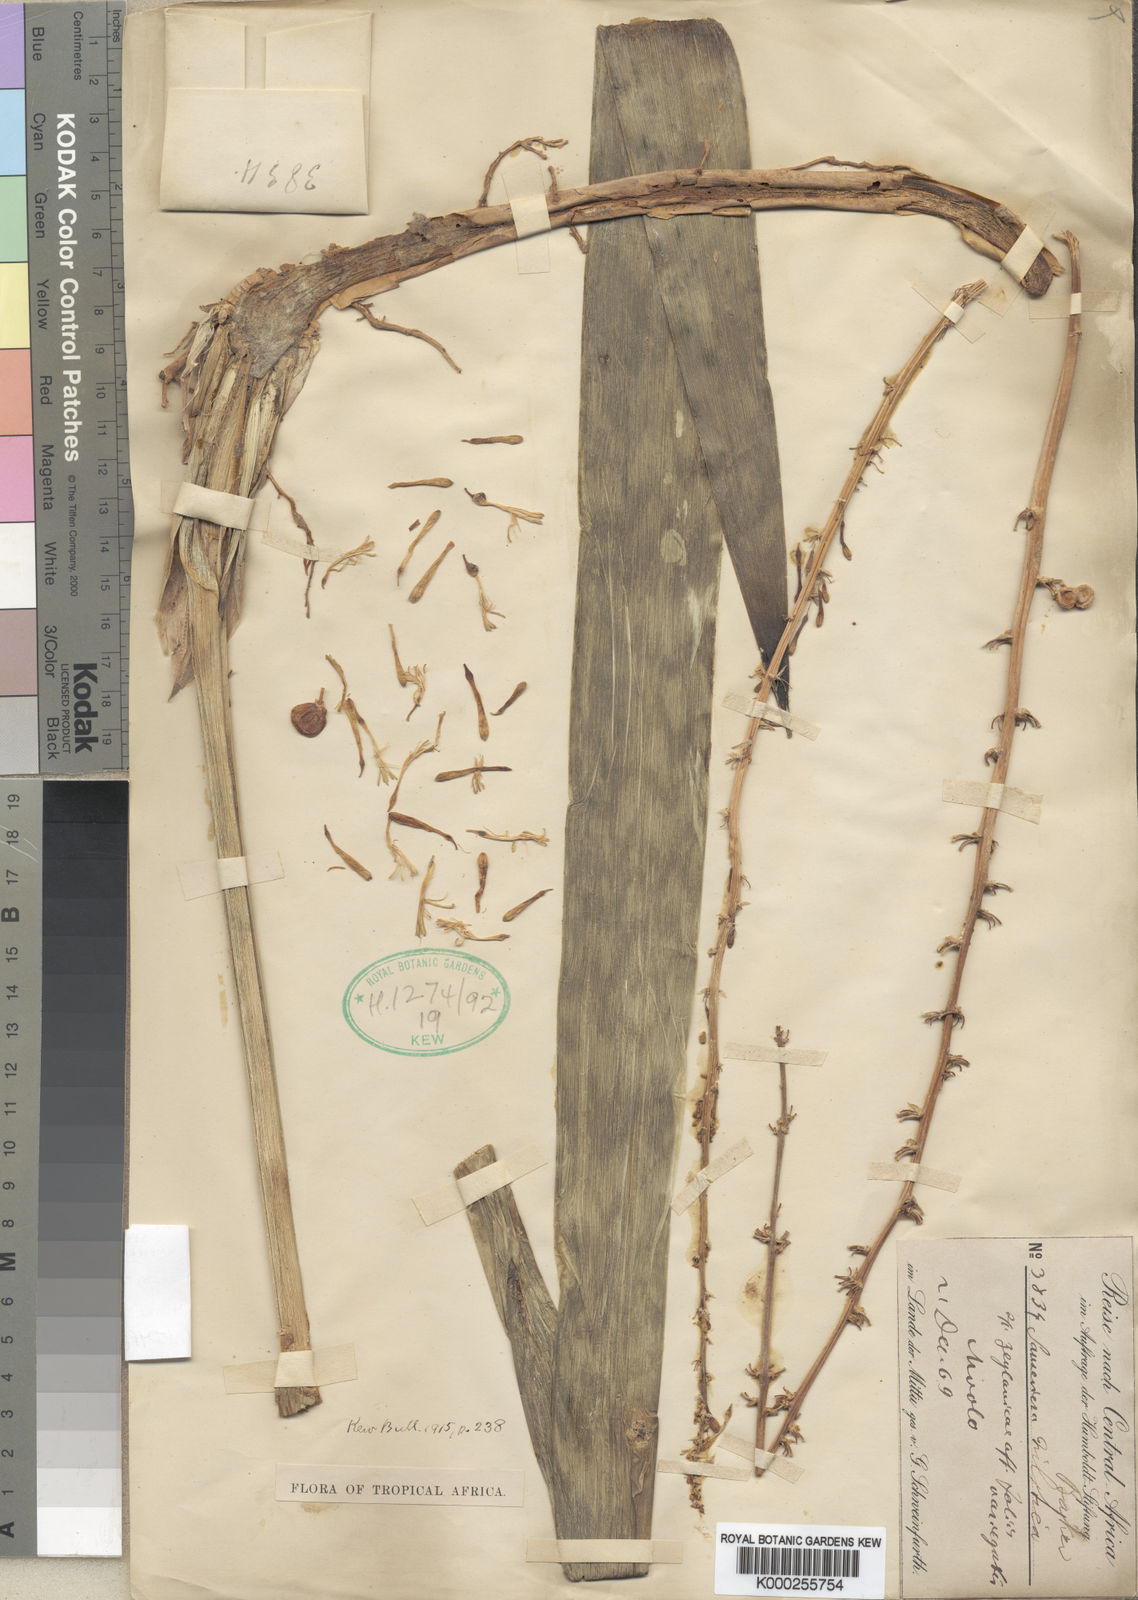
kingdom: Plantae
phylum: Tracheophyta
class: Liliopsida
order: Asparagales
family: Asparagaceae
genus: Dracaena
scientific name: Dracaena nilotica
